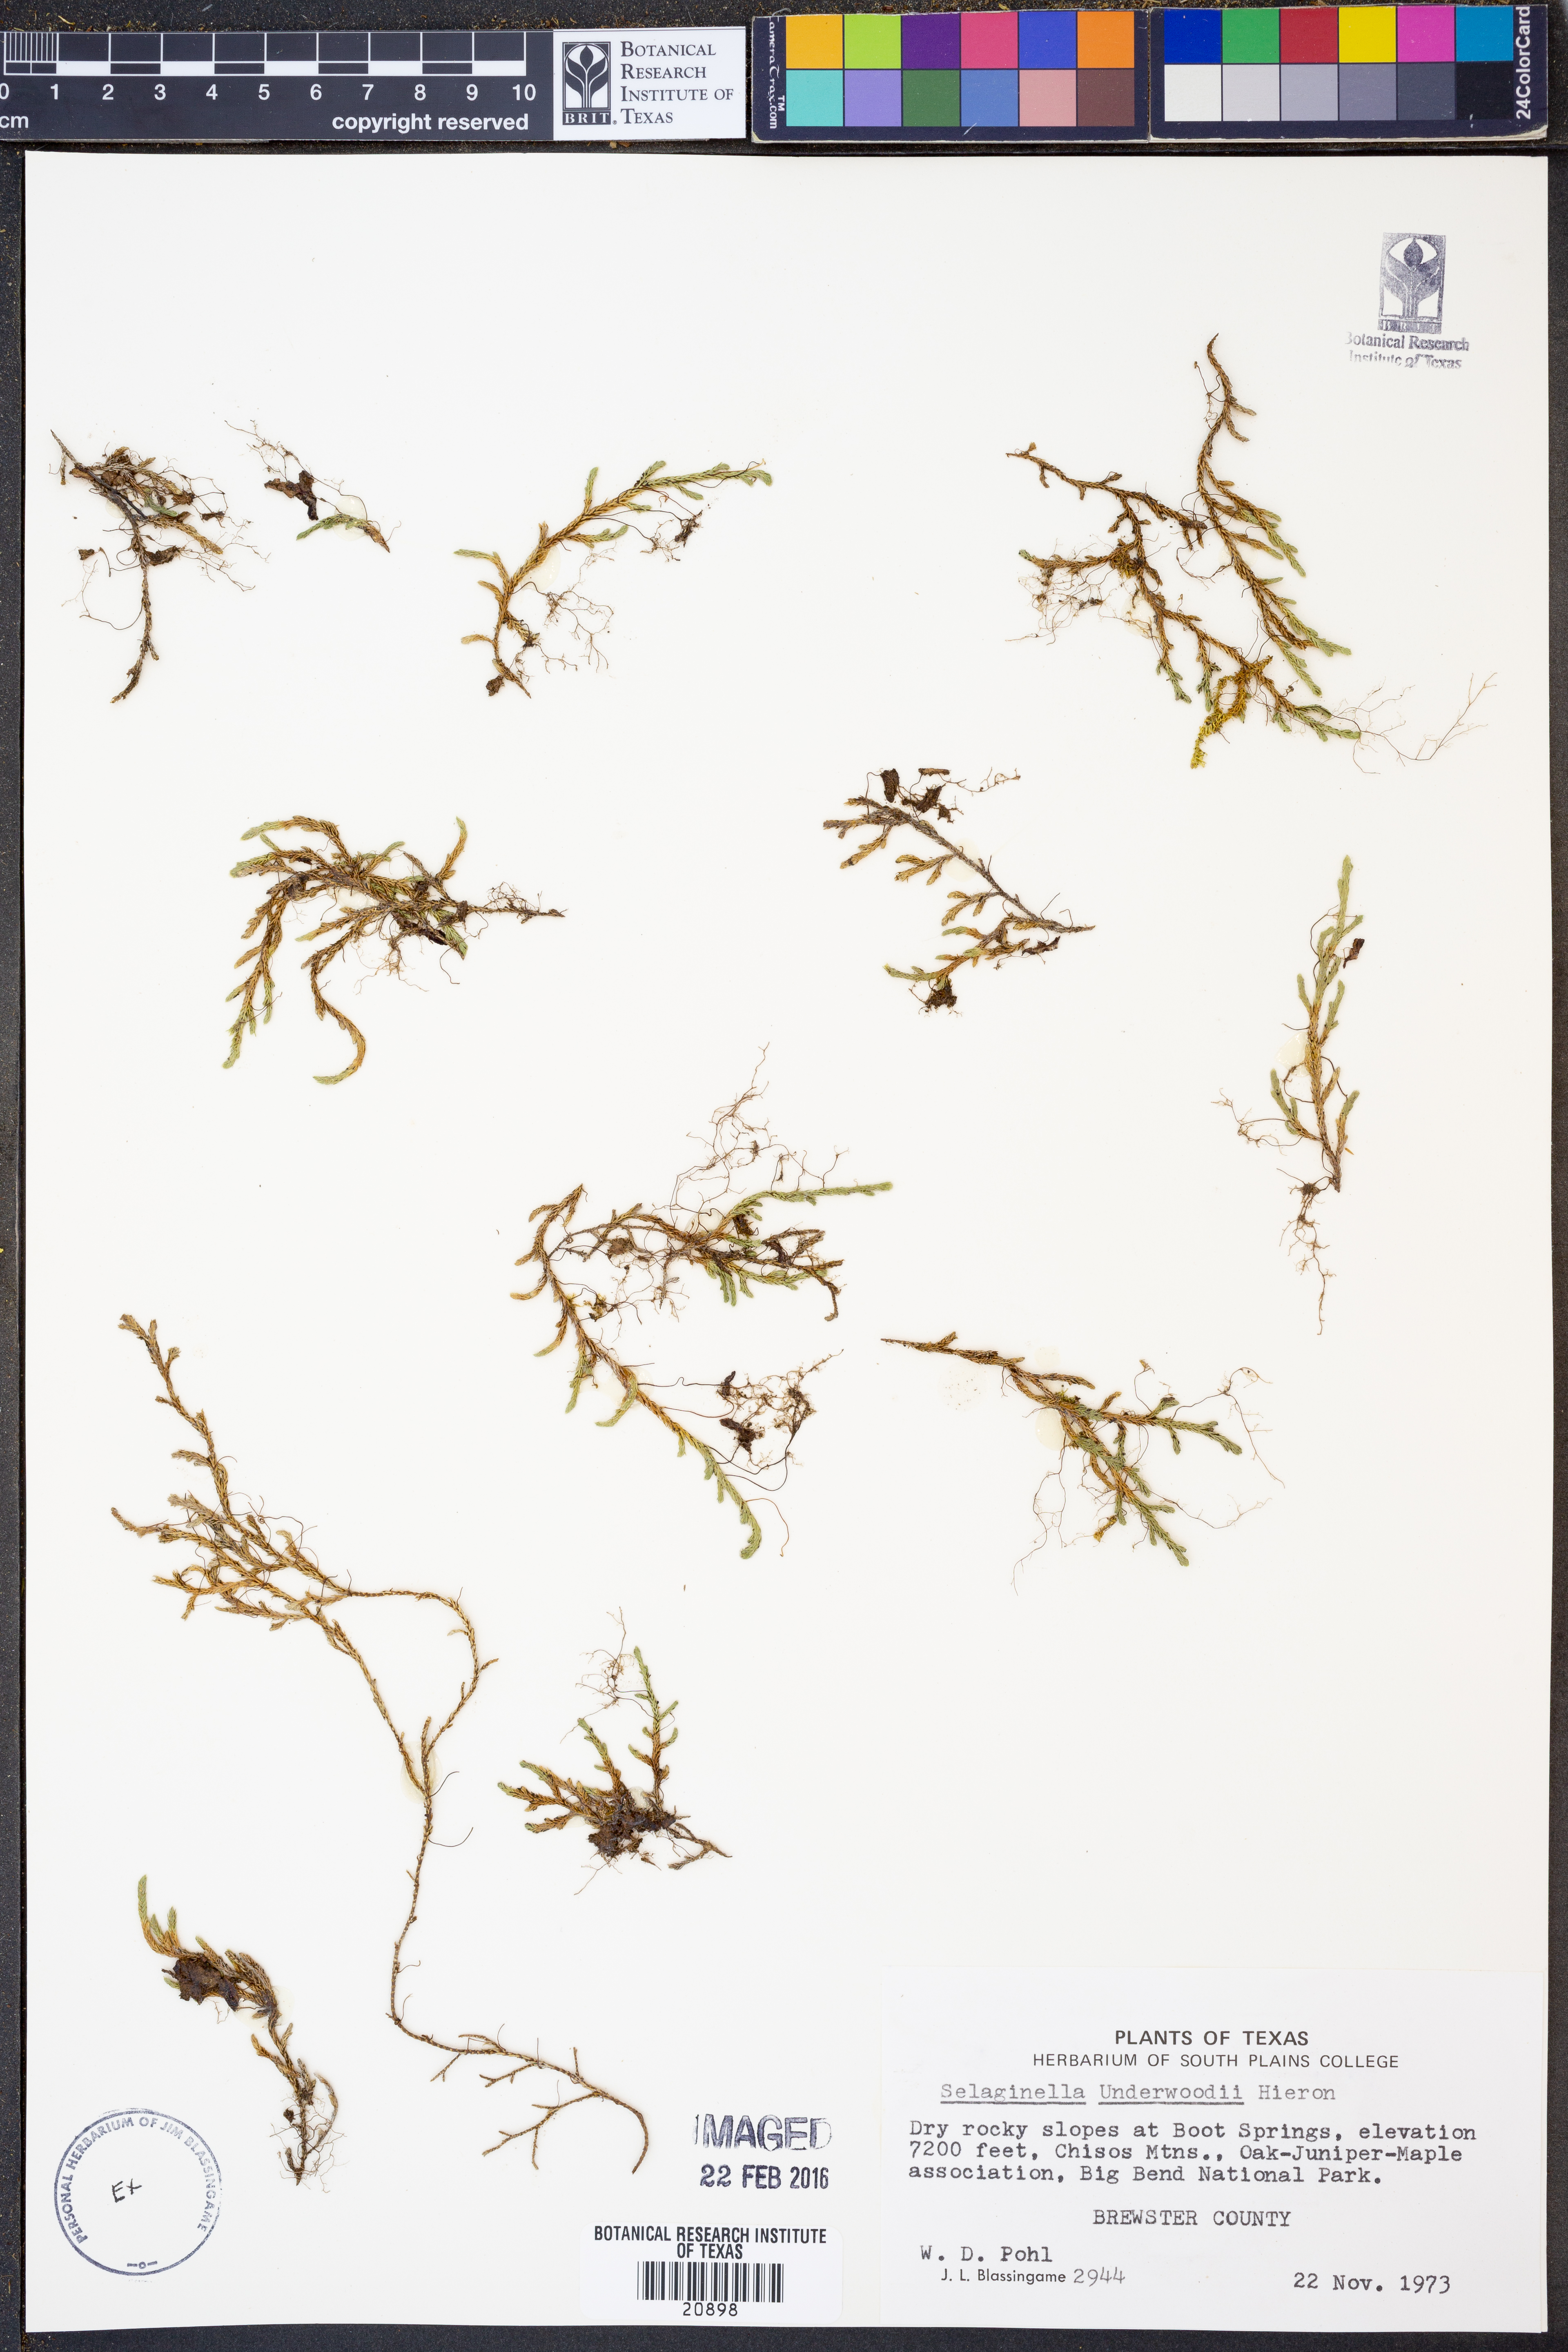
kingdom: Plantae
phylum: Tracheophyta
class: Lycopodiopsida
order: Selaginellales
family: Selaginellaceae
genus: Selaginella
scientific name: Selaginella underwoodii
